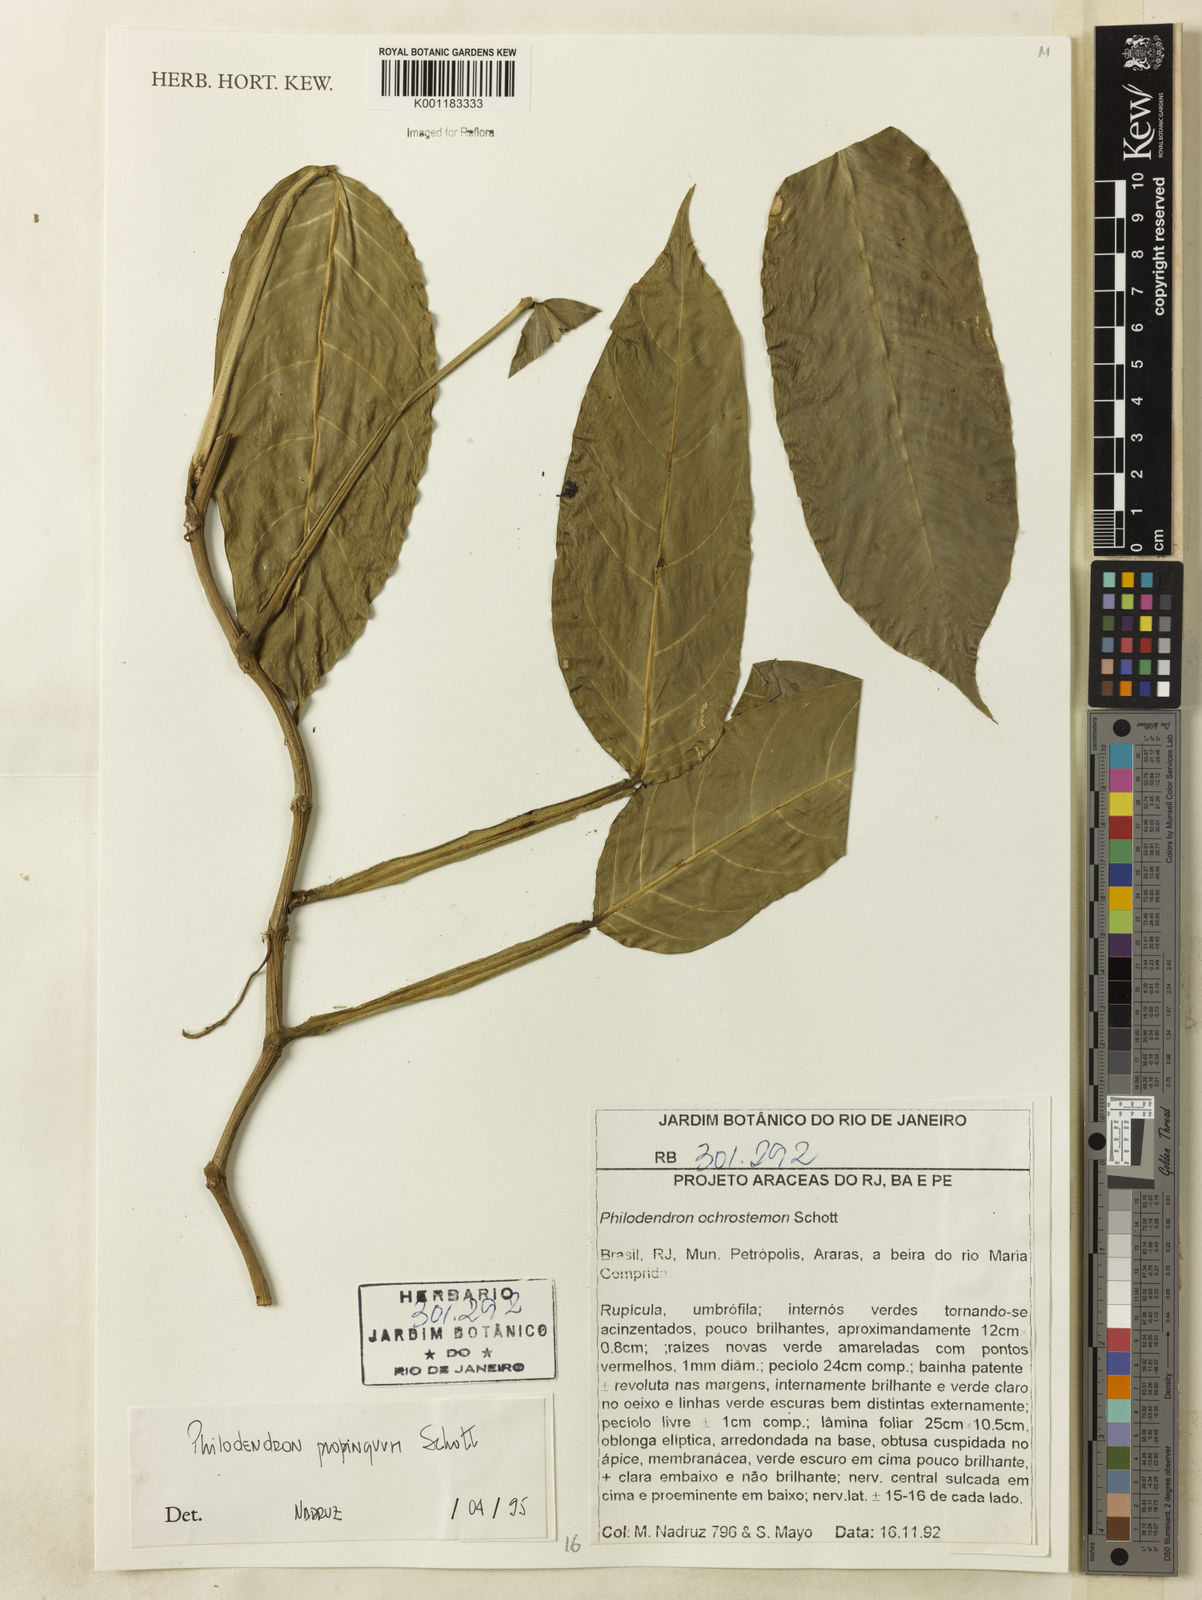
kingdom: Plantae
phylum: Tracheophyta
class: Liliopsida
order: Alismatales
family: Araceae
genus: Philodendron
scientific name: Philodendron propinquum
